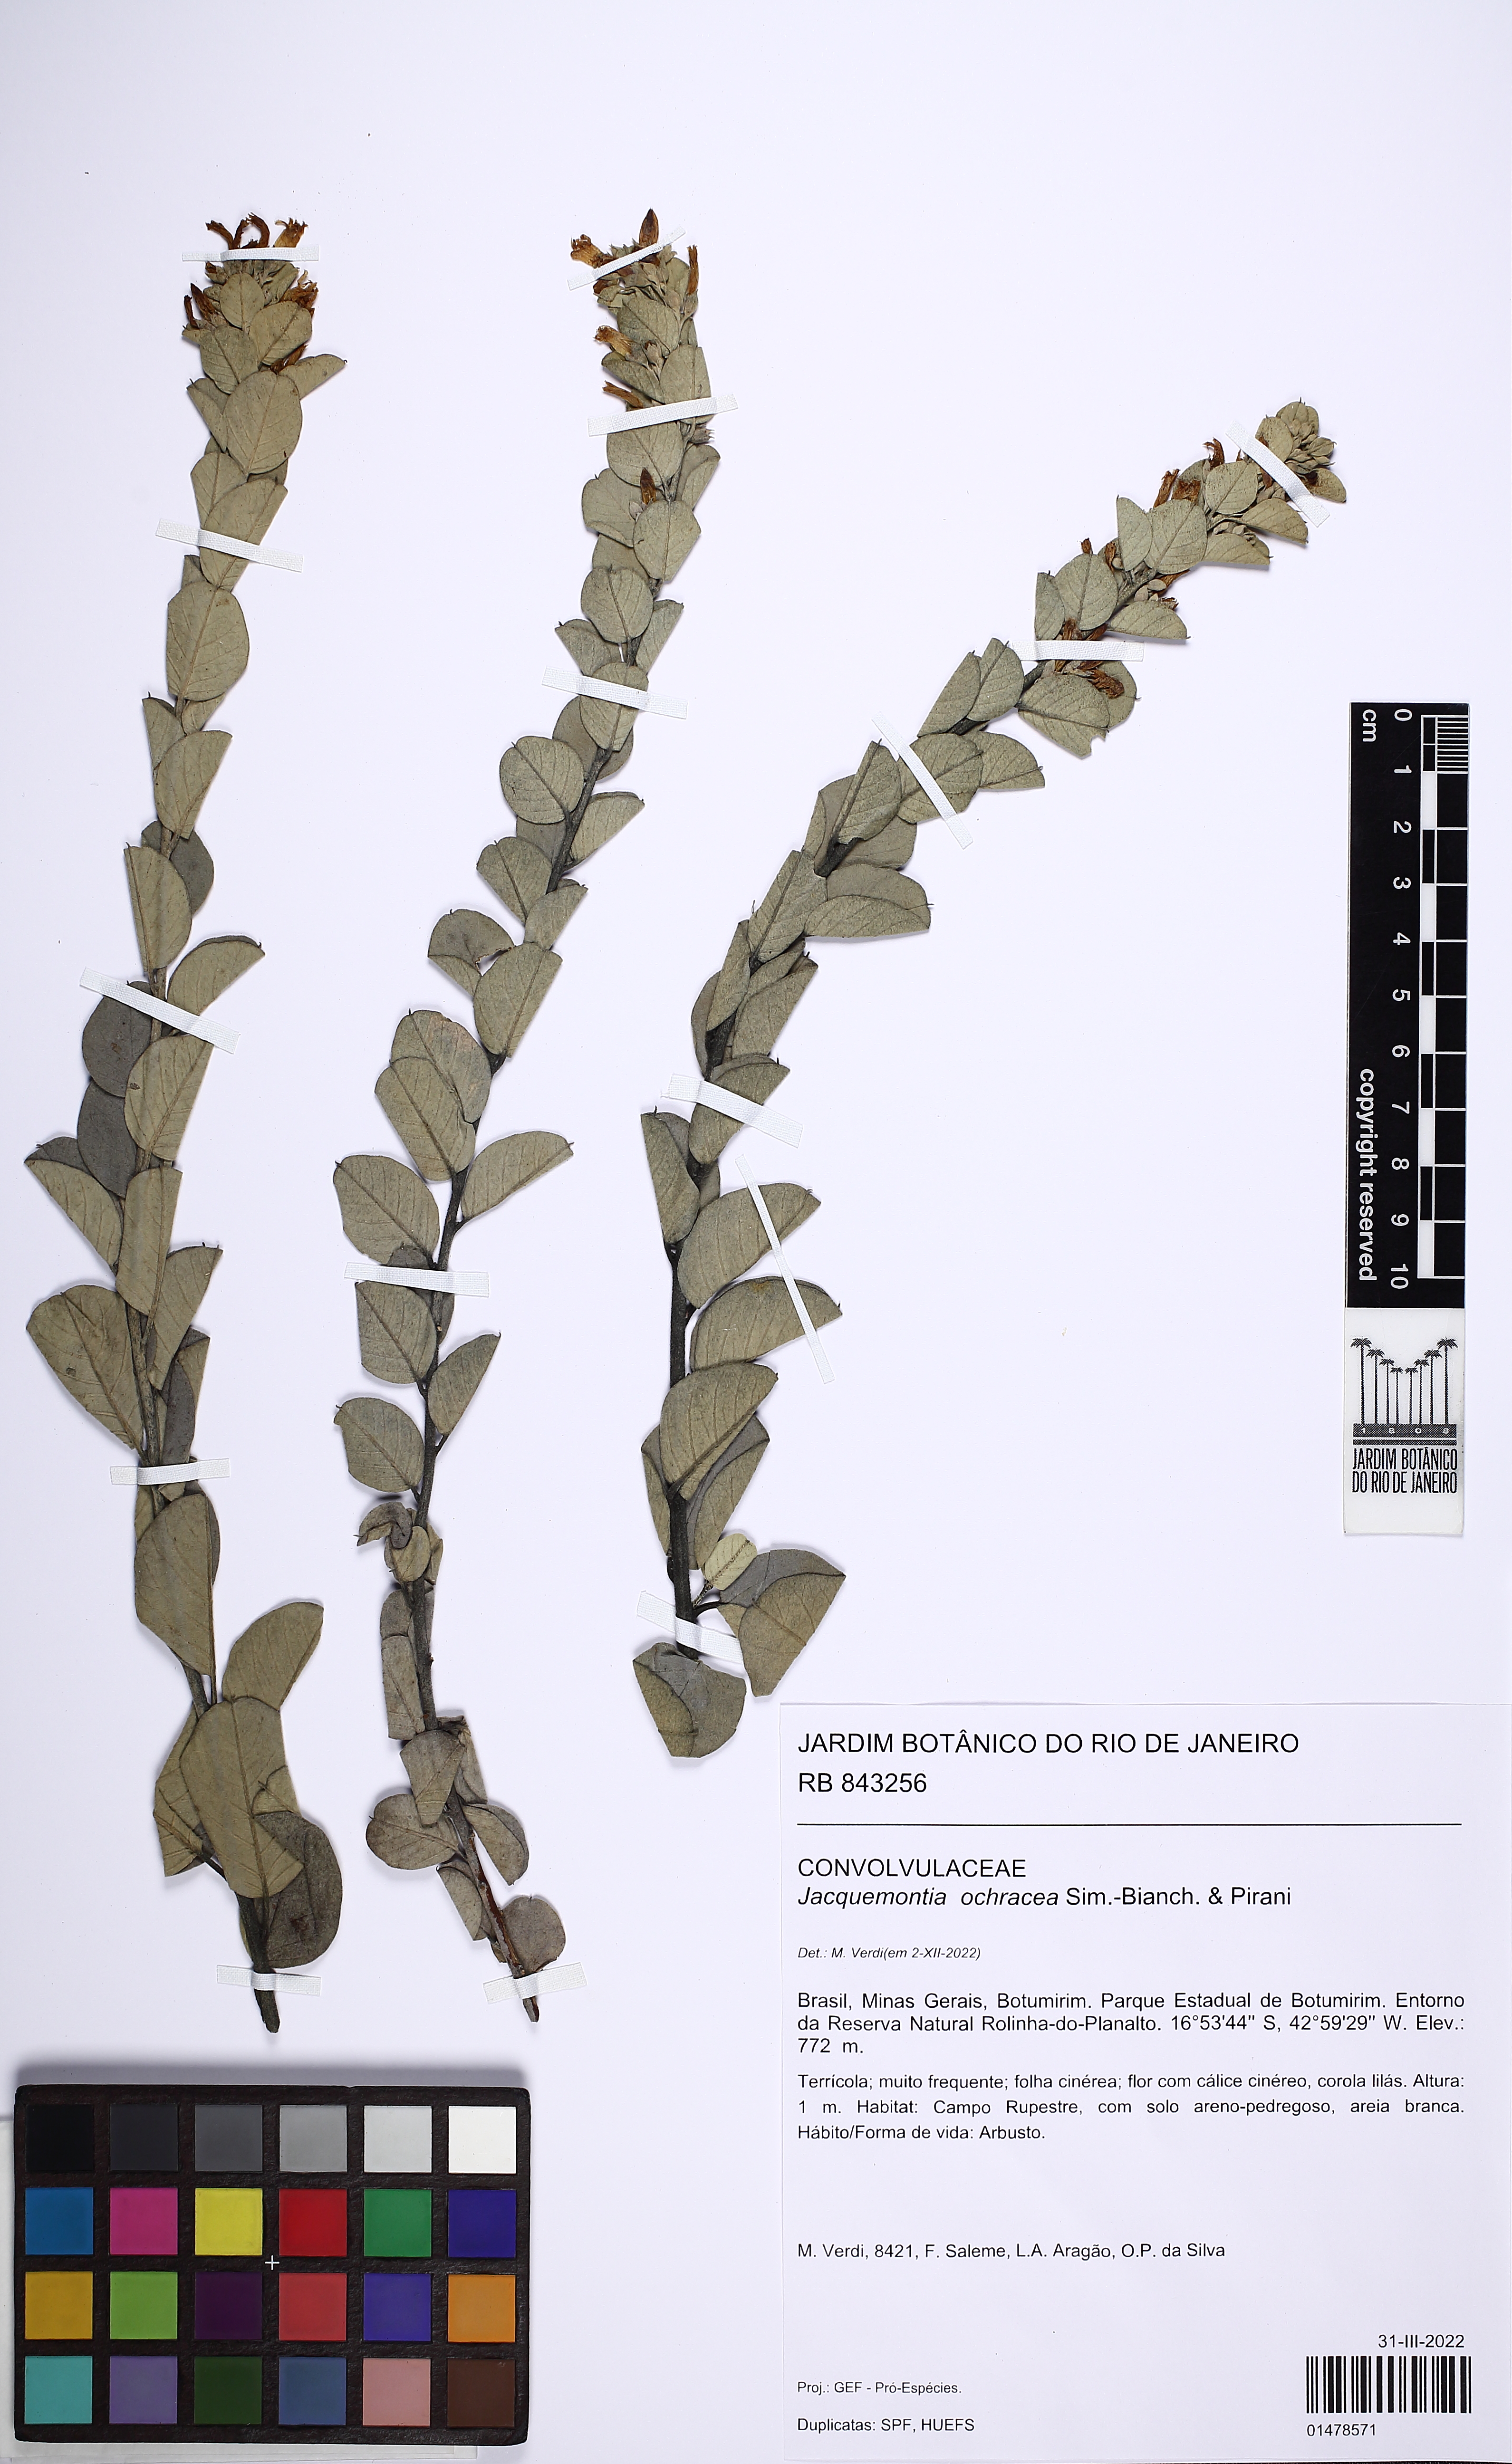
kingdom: Plantae
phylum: Tracheophyta
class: Magnoliopsida
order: Solanales
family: Convolvulaceae
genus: Jacquemontia
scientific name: Jacquemontia ochracea
